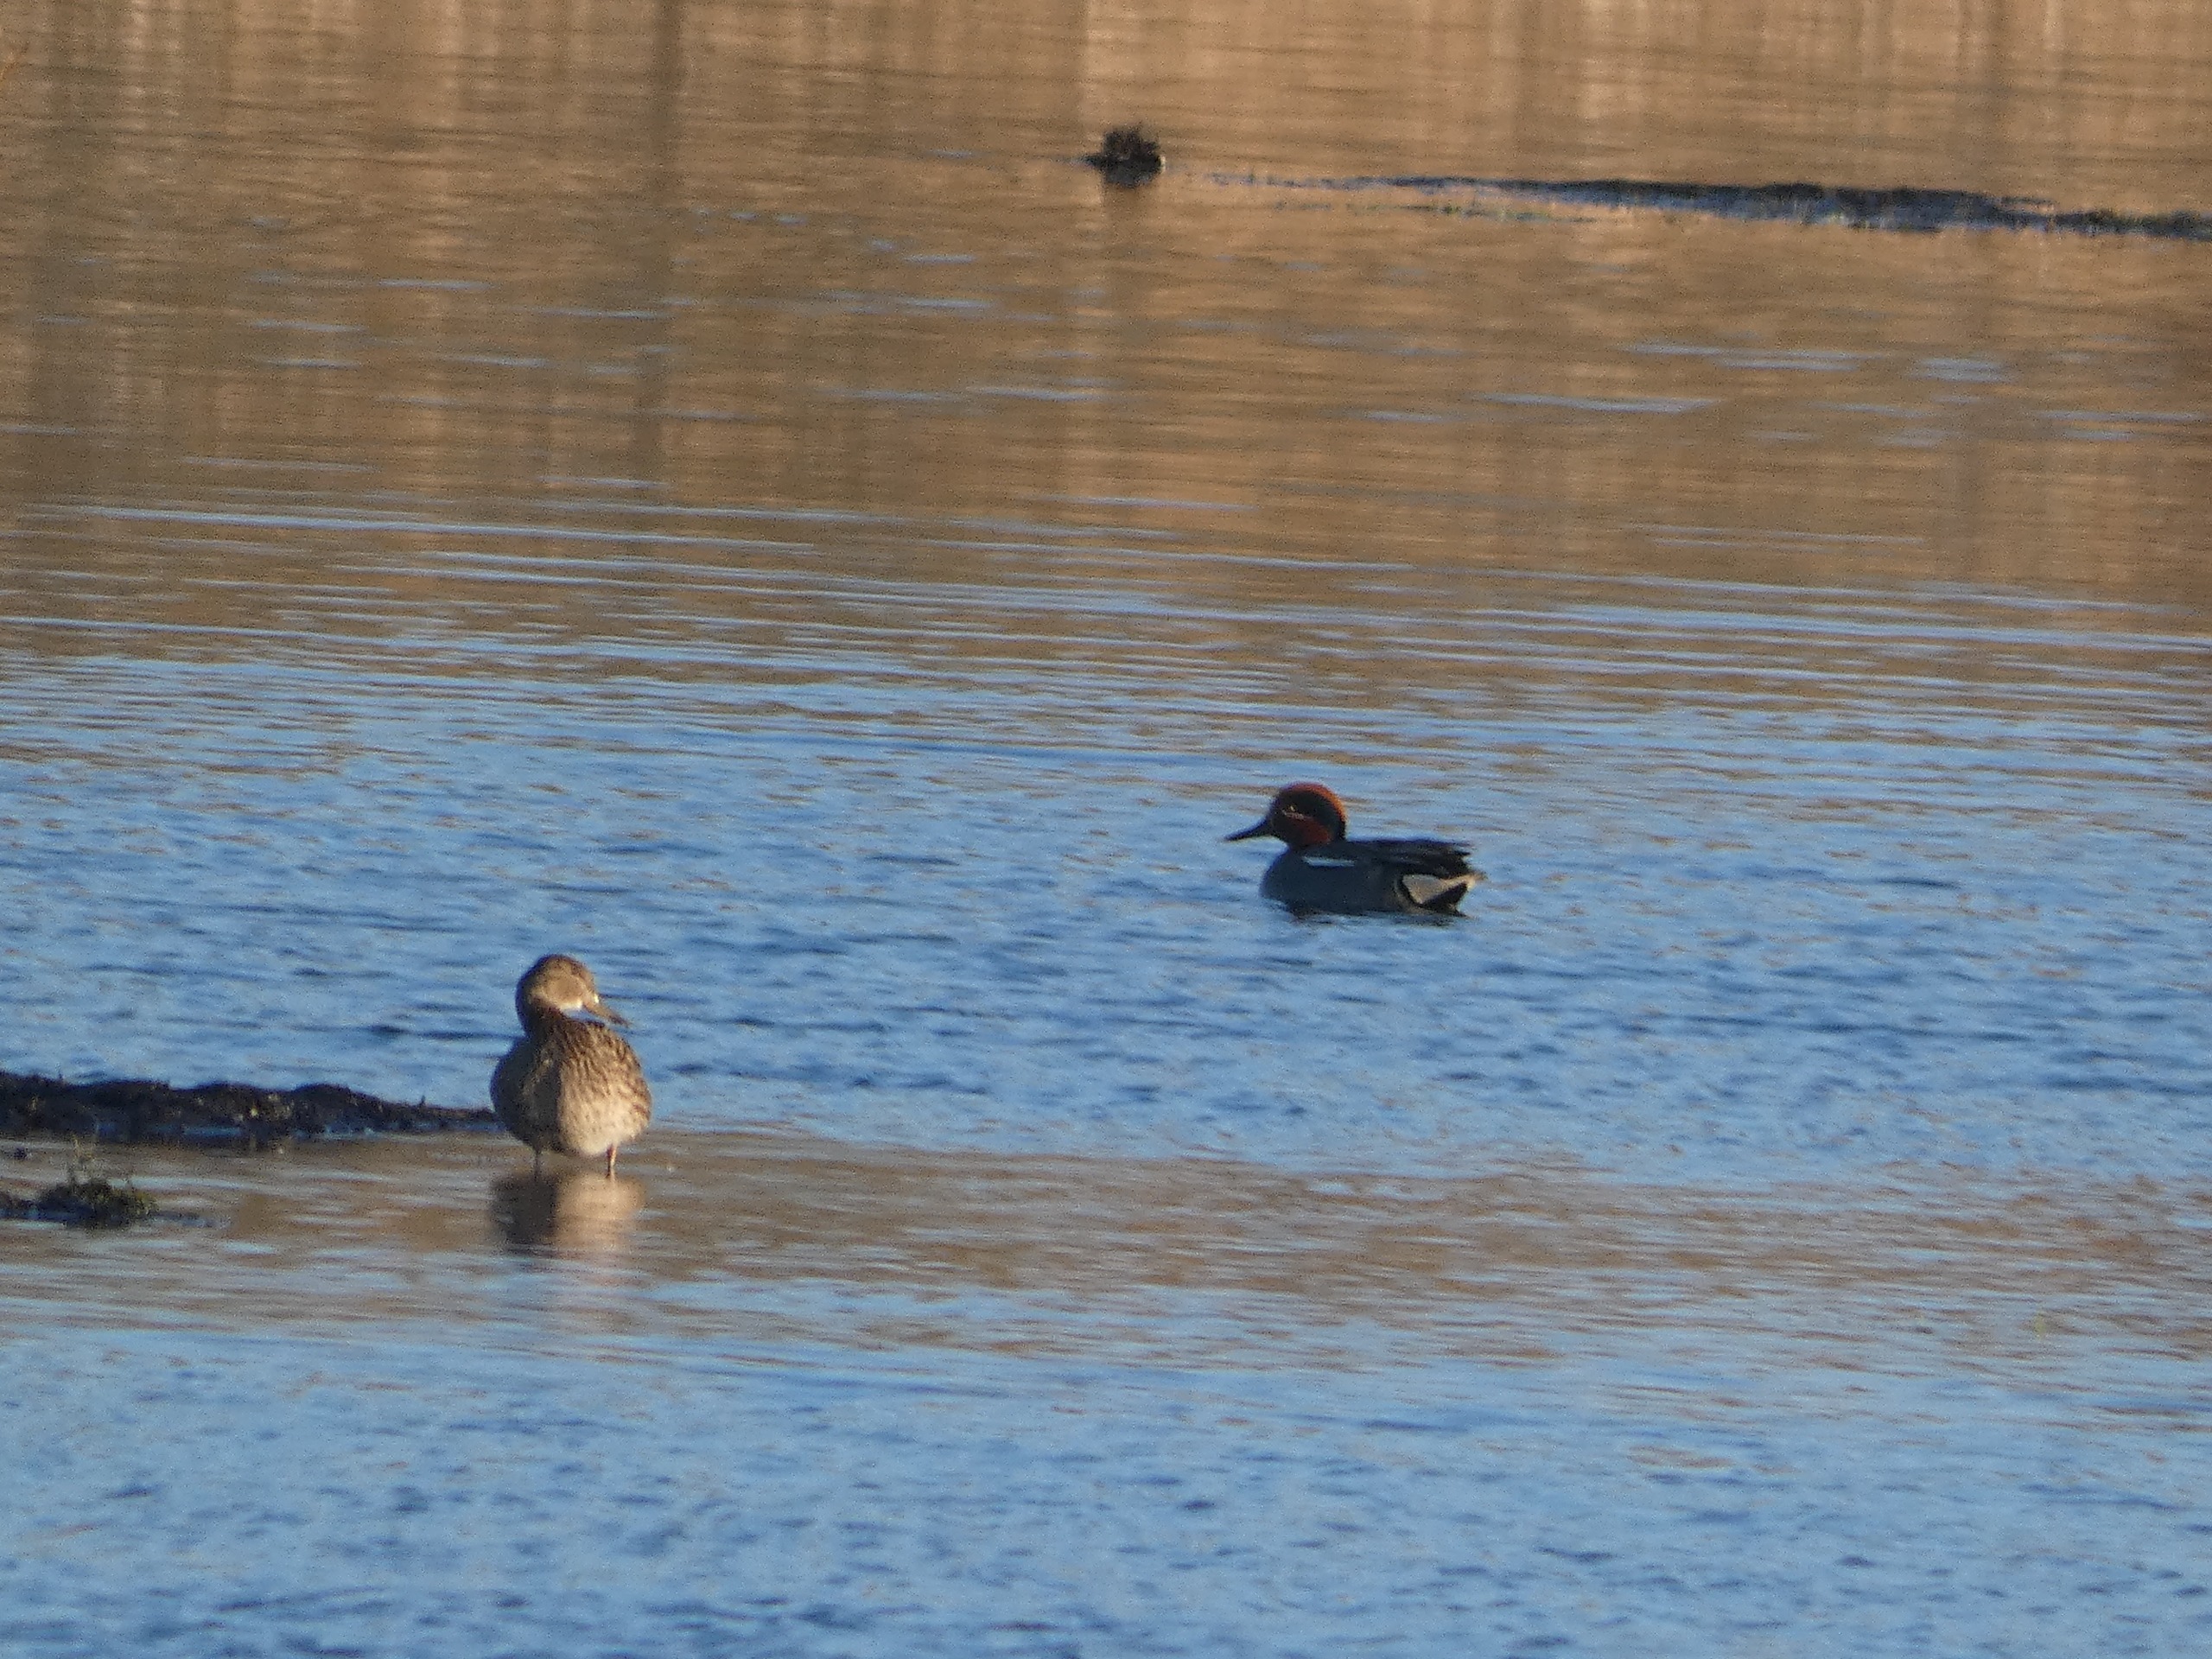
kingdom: Animalia
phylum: Chordata
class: Aves
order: Anseriformes
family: Anatidae
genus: Anas
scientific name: Anas crecca
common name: Krikand
